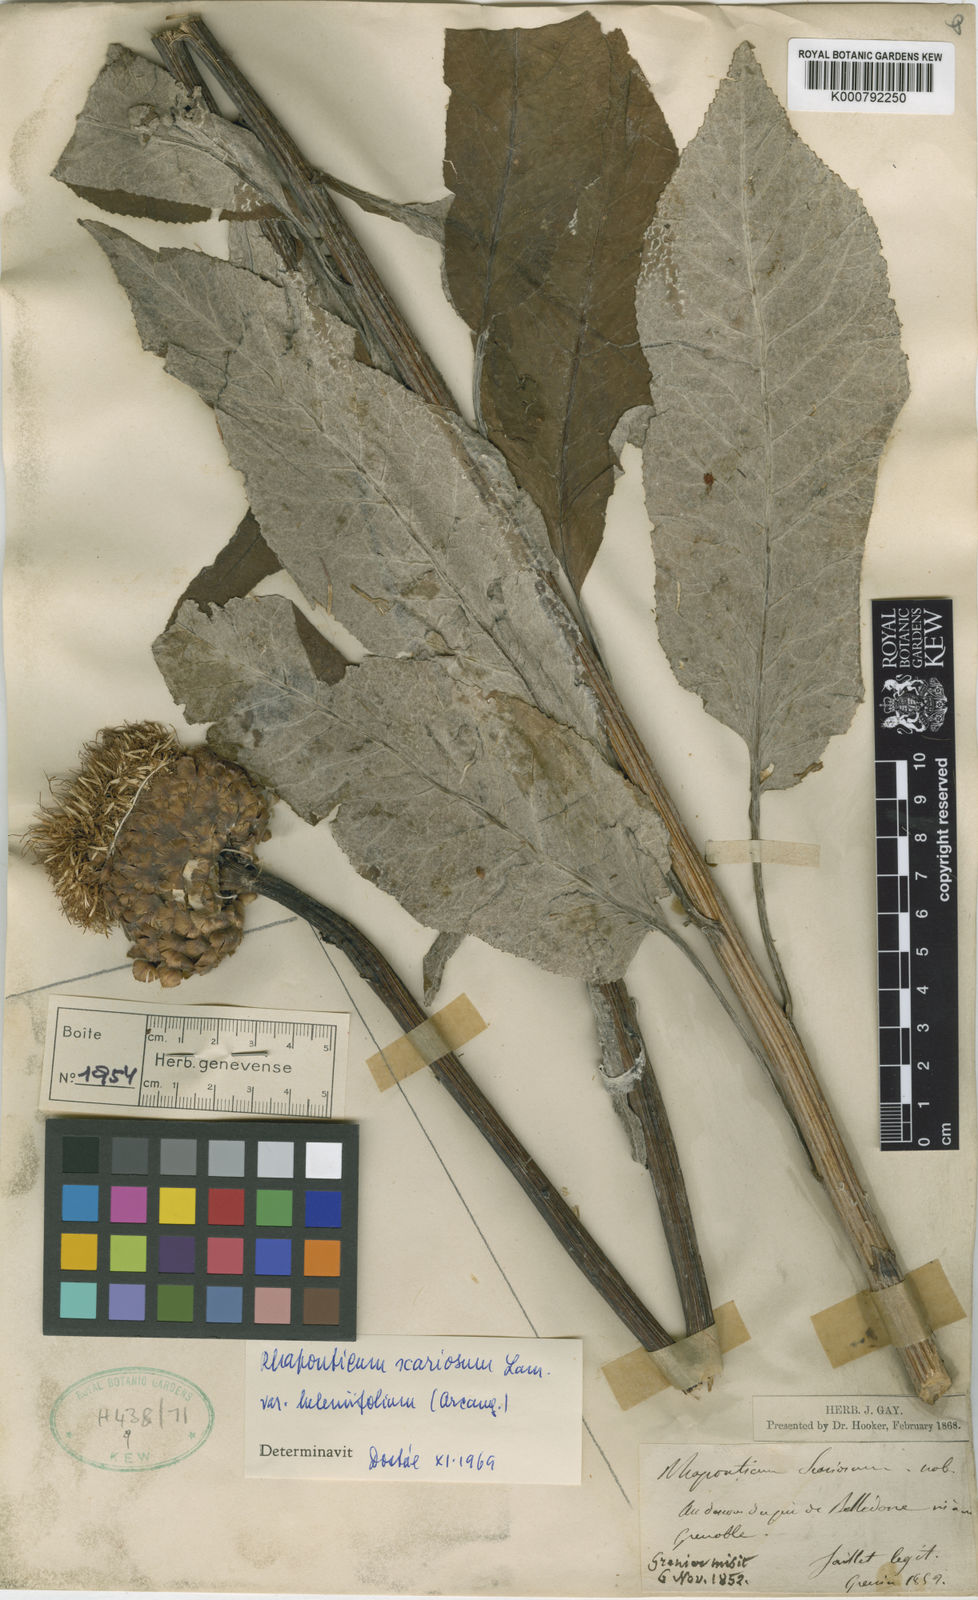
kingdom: Plantae
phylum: Tracheophyta
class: Magnoliopsida
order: Asterales
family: Asteraceae
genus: Leuzea
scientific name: Leuzea
